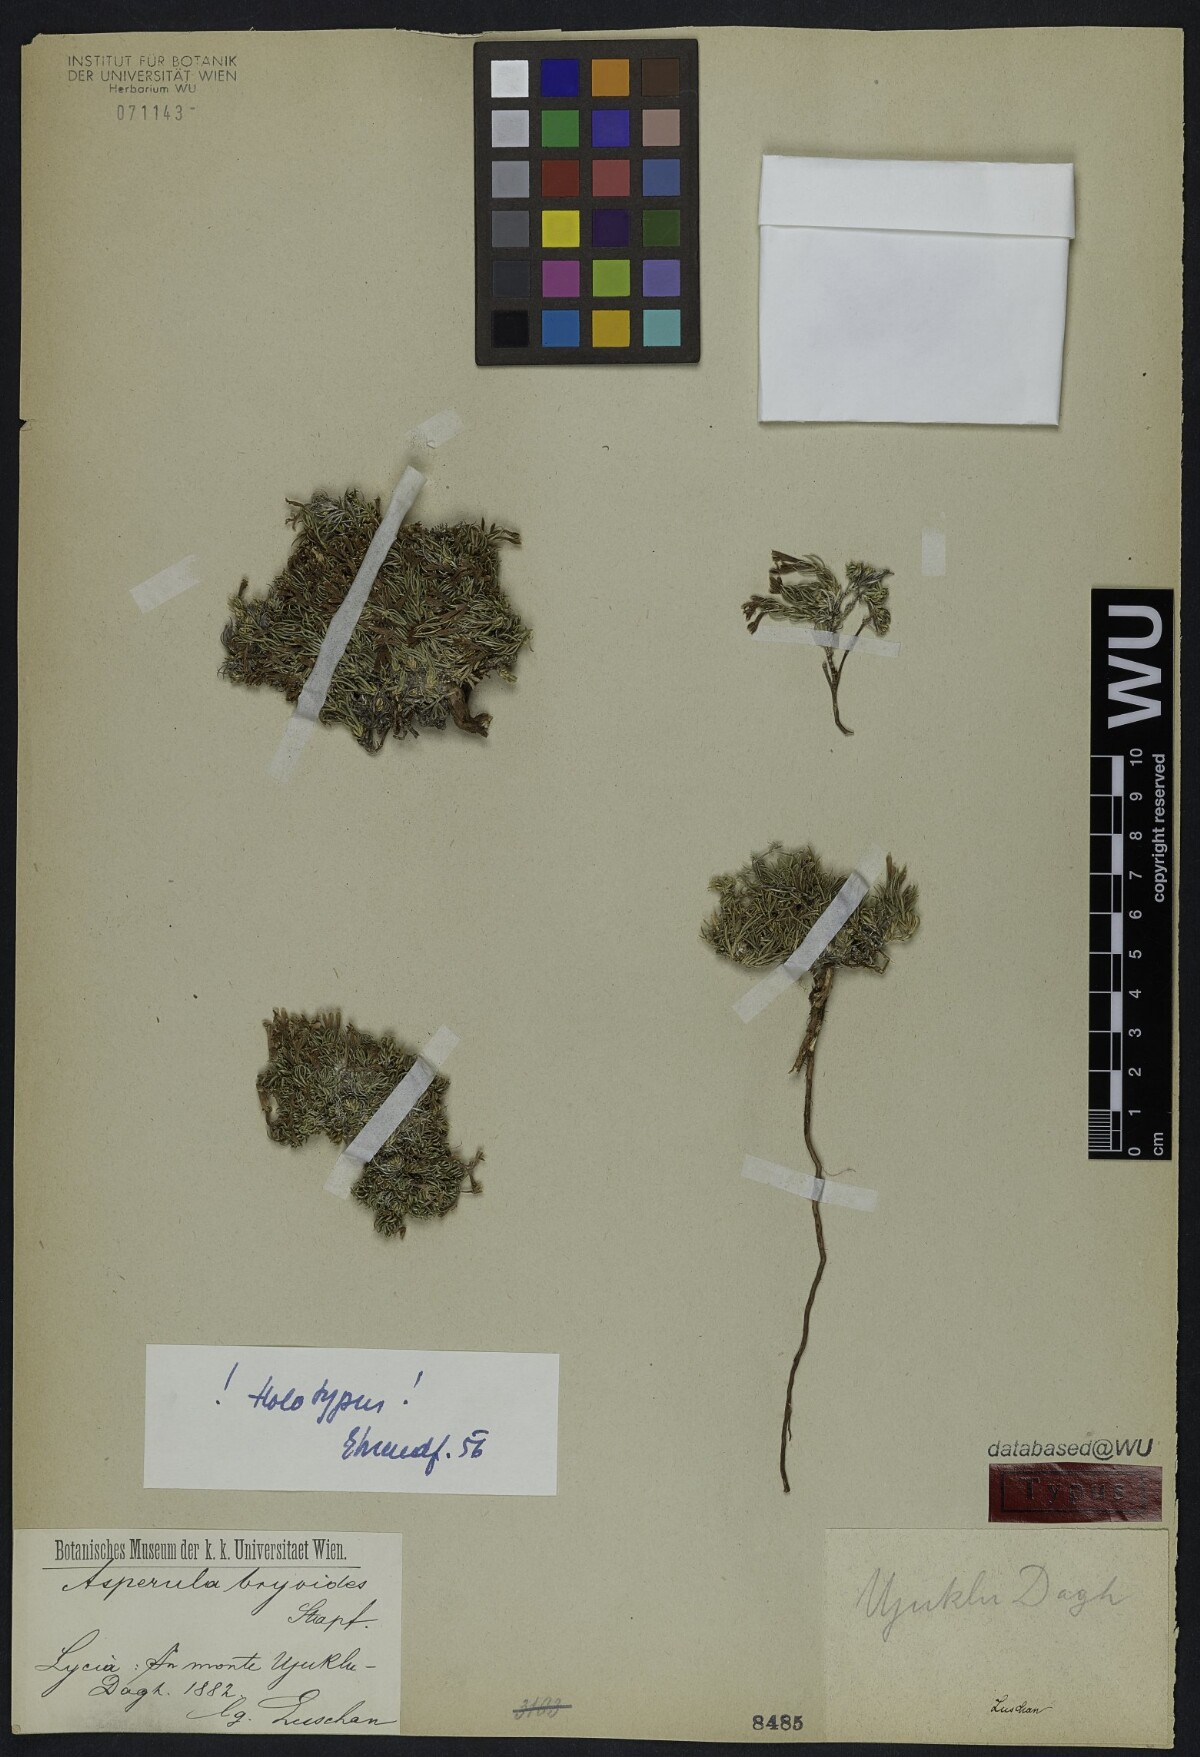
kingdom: Plantae
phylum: Tracheophyta
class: Magnoliopsida
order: Gentianales
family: Rubiaceae
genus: Cynanchica
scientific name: Cynanchica bryoides
